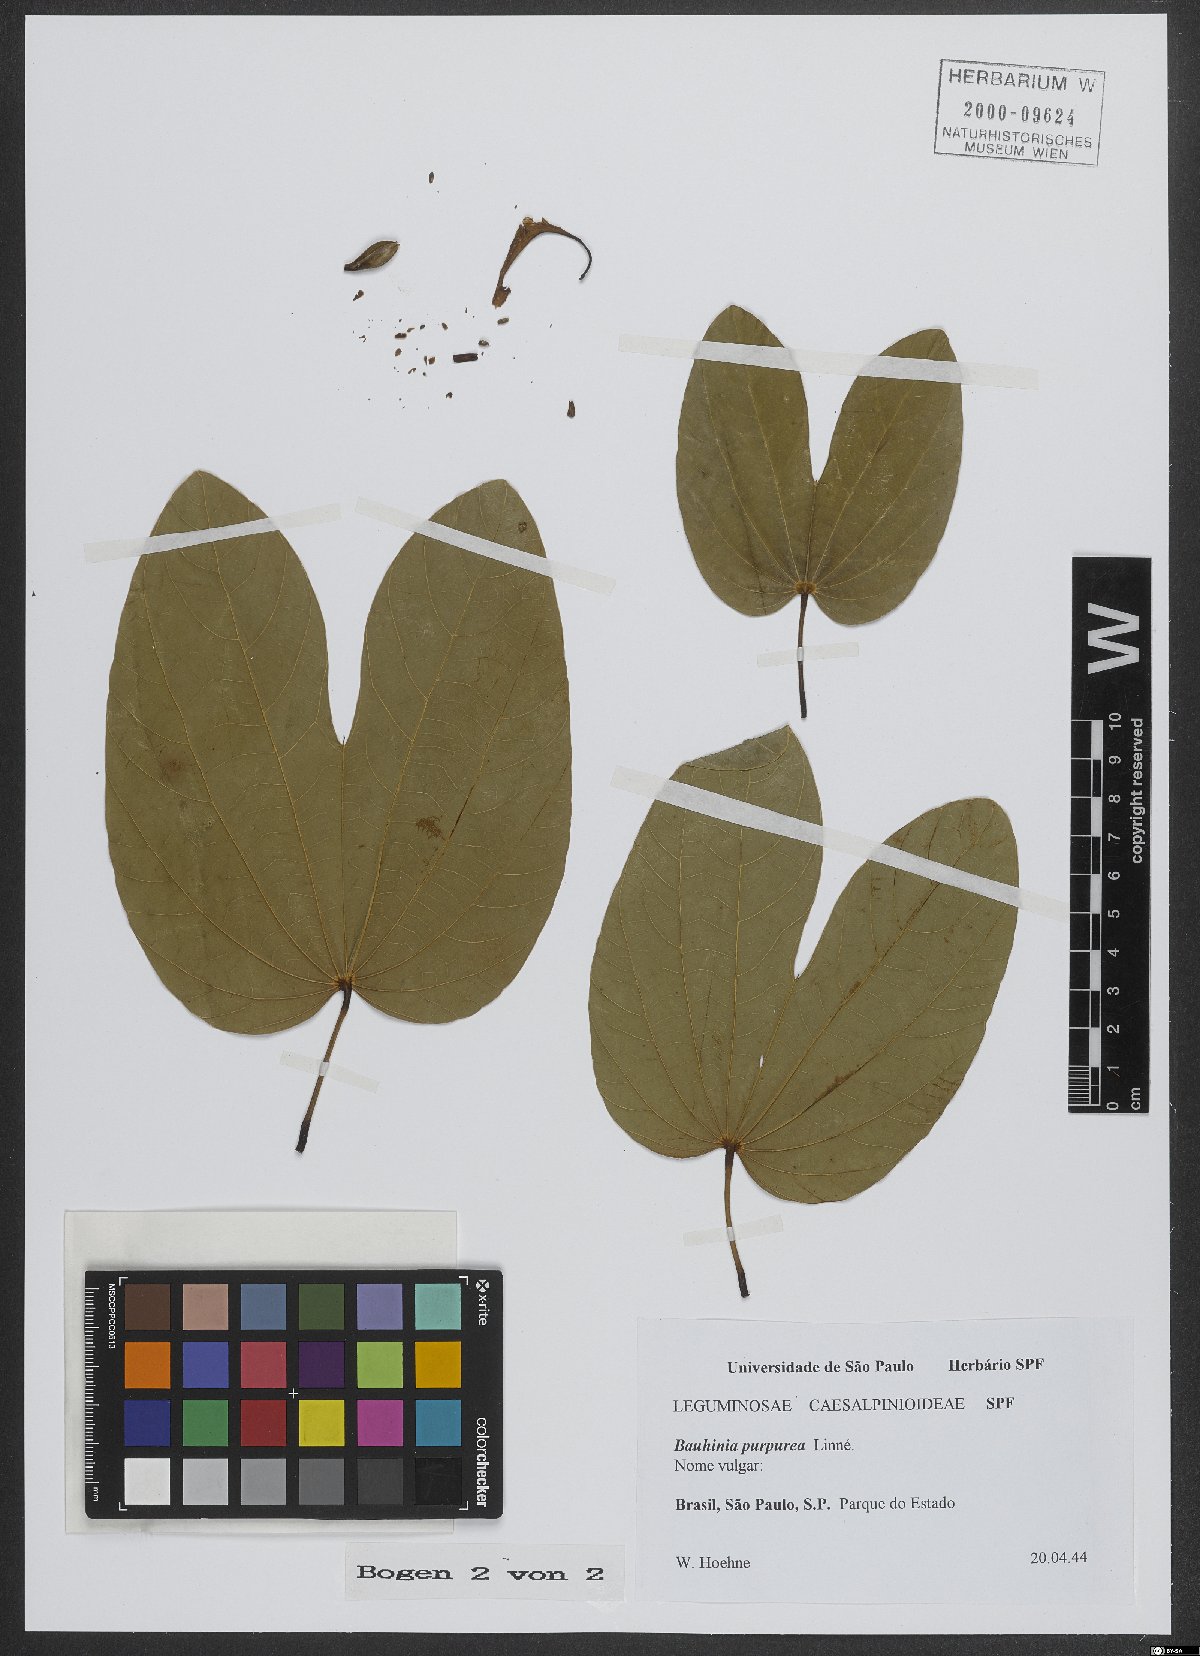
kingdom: Plantae
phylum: Tracheophyta
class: Magnoliopsida
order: Fabales
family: Fabaceae
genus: Bauhinia
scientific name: Bauhinia purpurea
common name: Butterfly-tree
